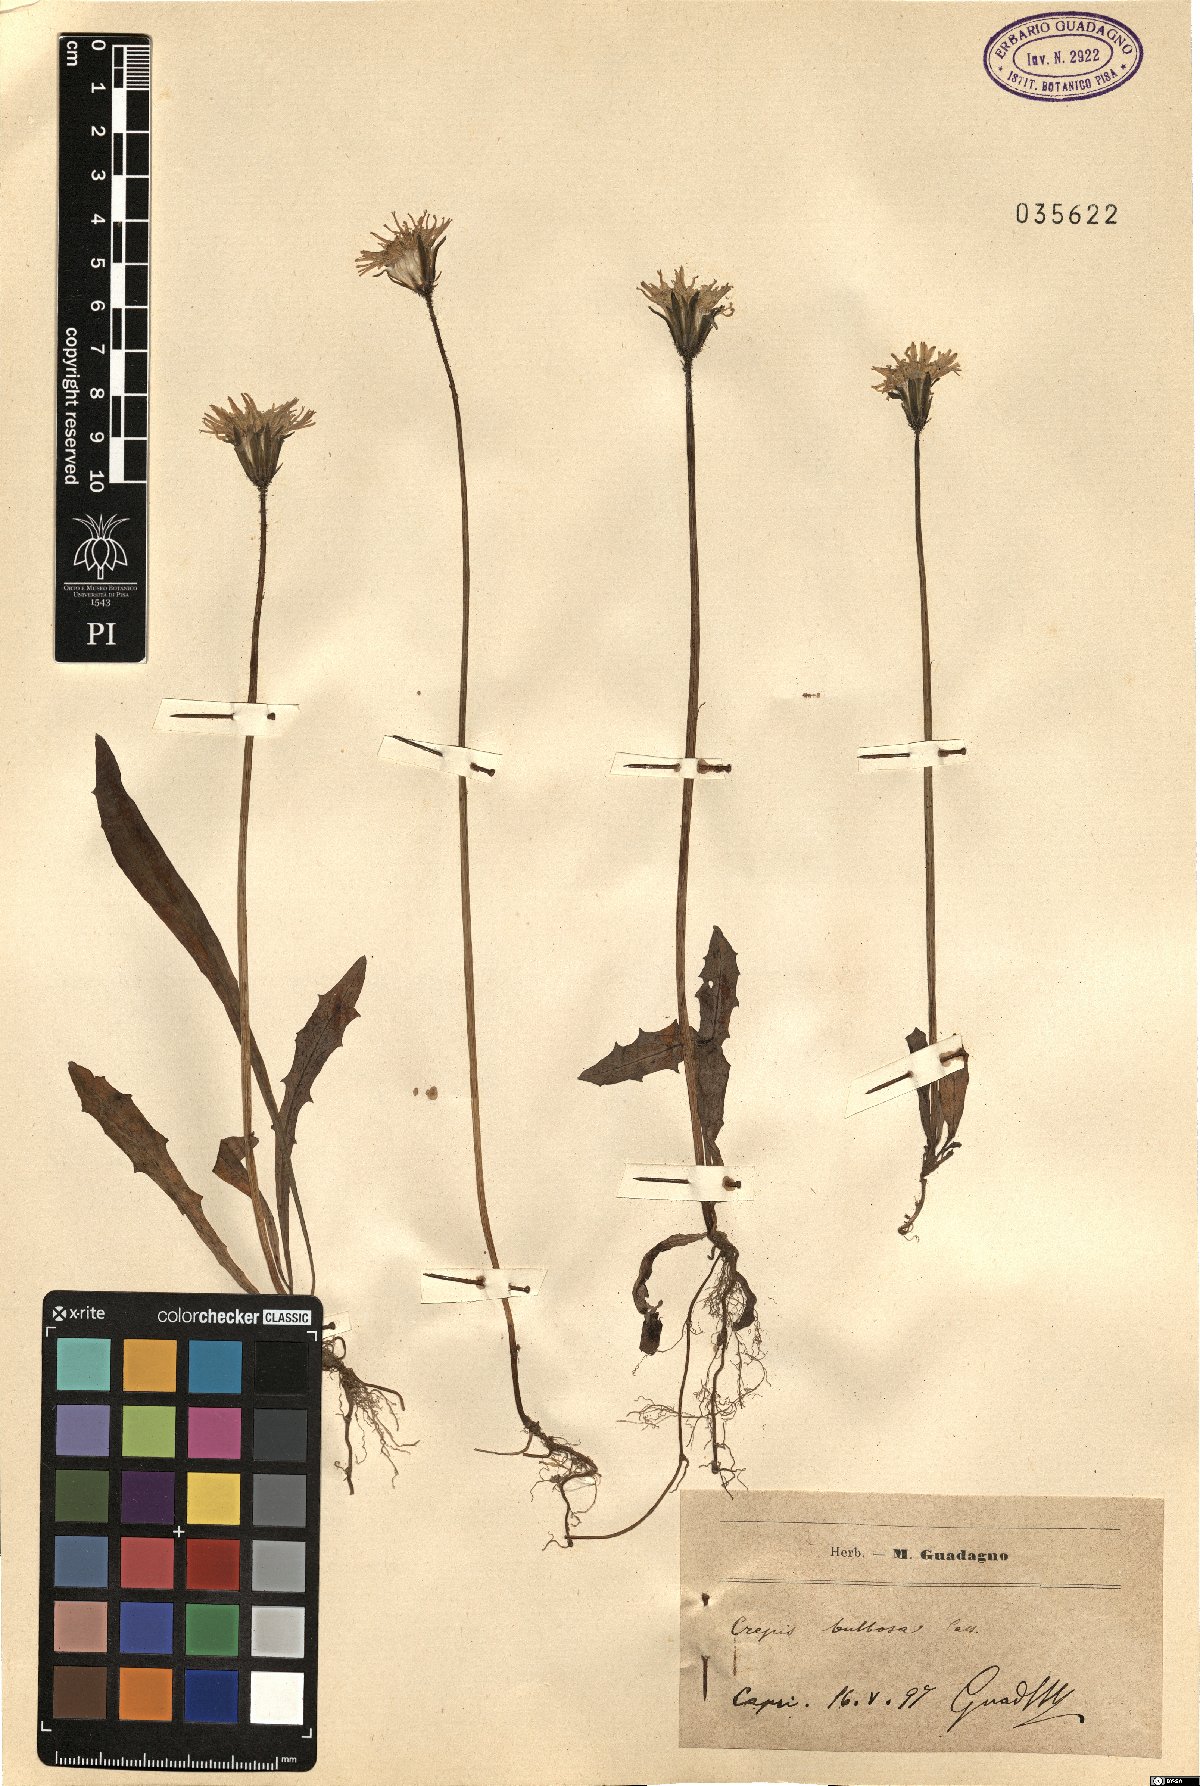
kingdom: Plantae
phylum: Tracheophyta
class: Magnoliopsida
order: Asterales
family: Asteraceae
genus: Aetheorhiza
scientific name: Aetheorhiza bulbosa
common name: Tuberous hawk's-beard
